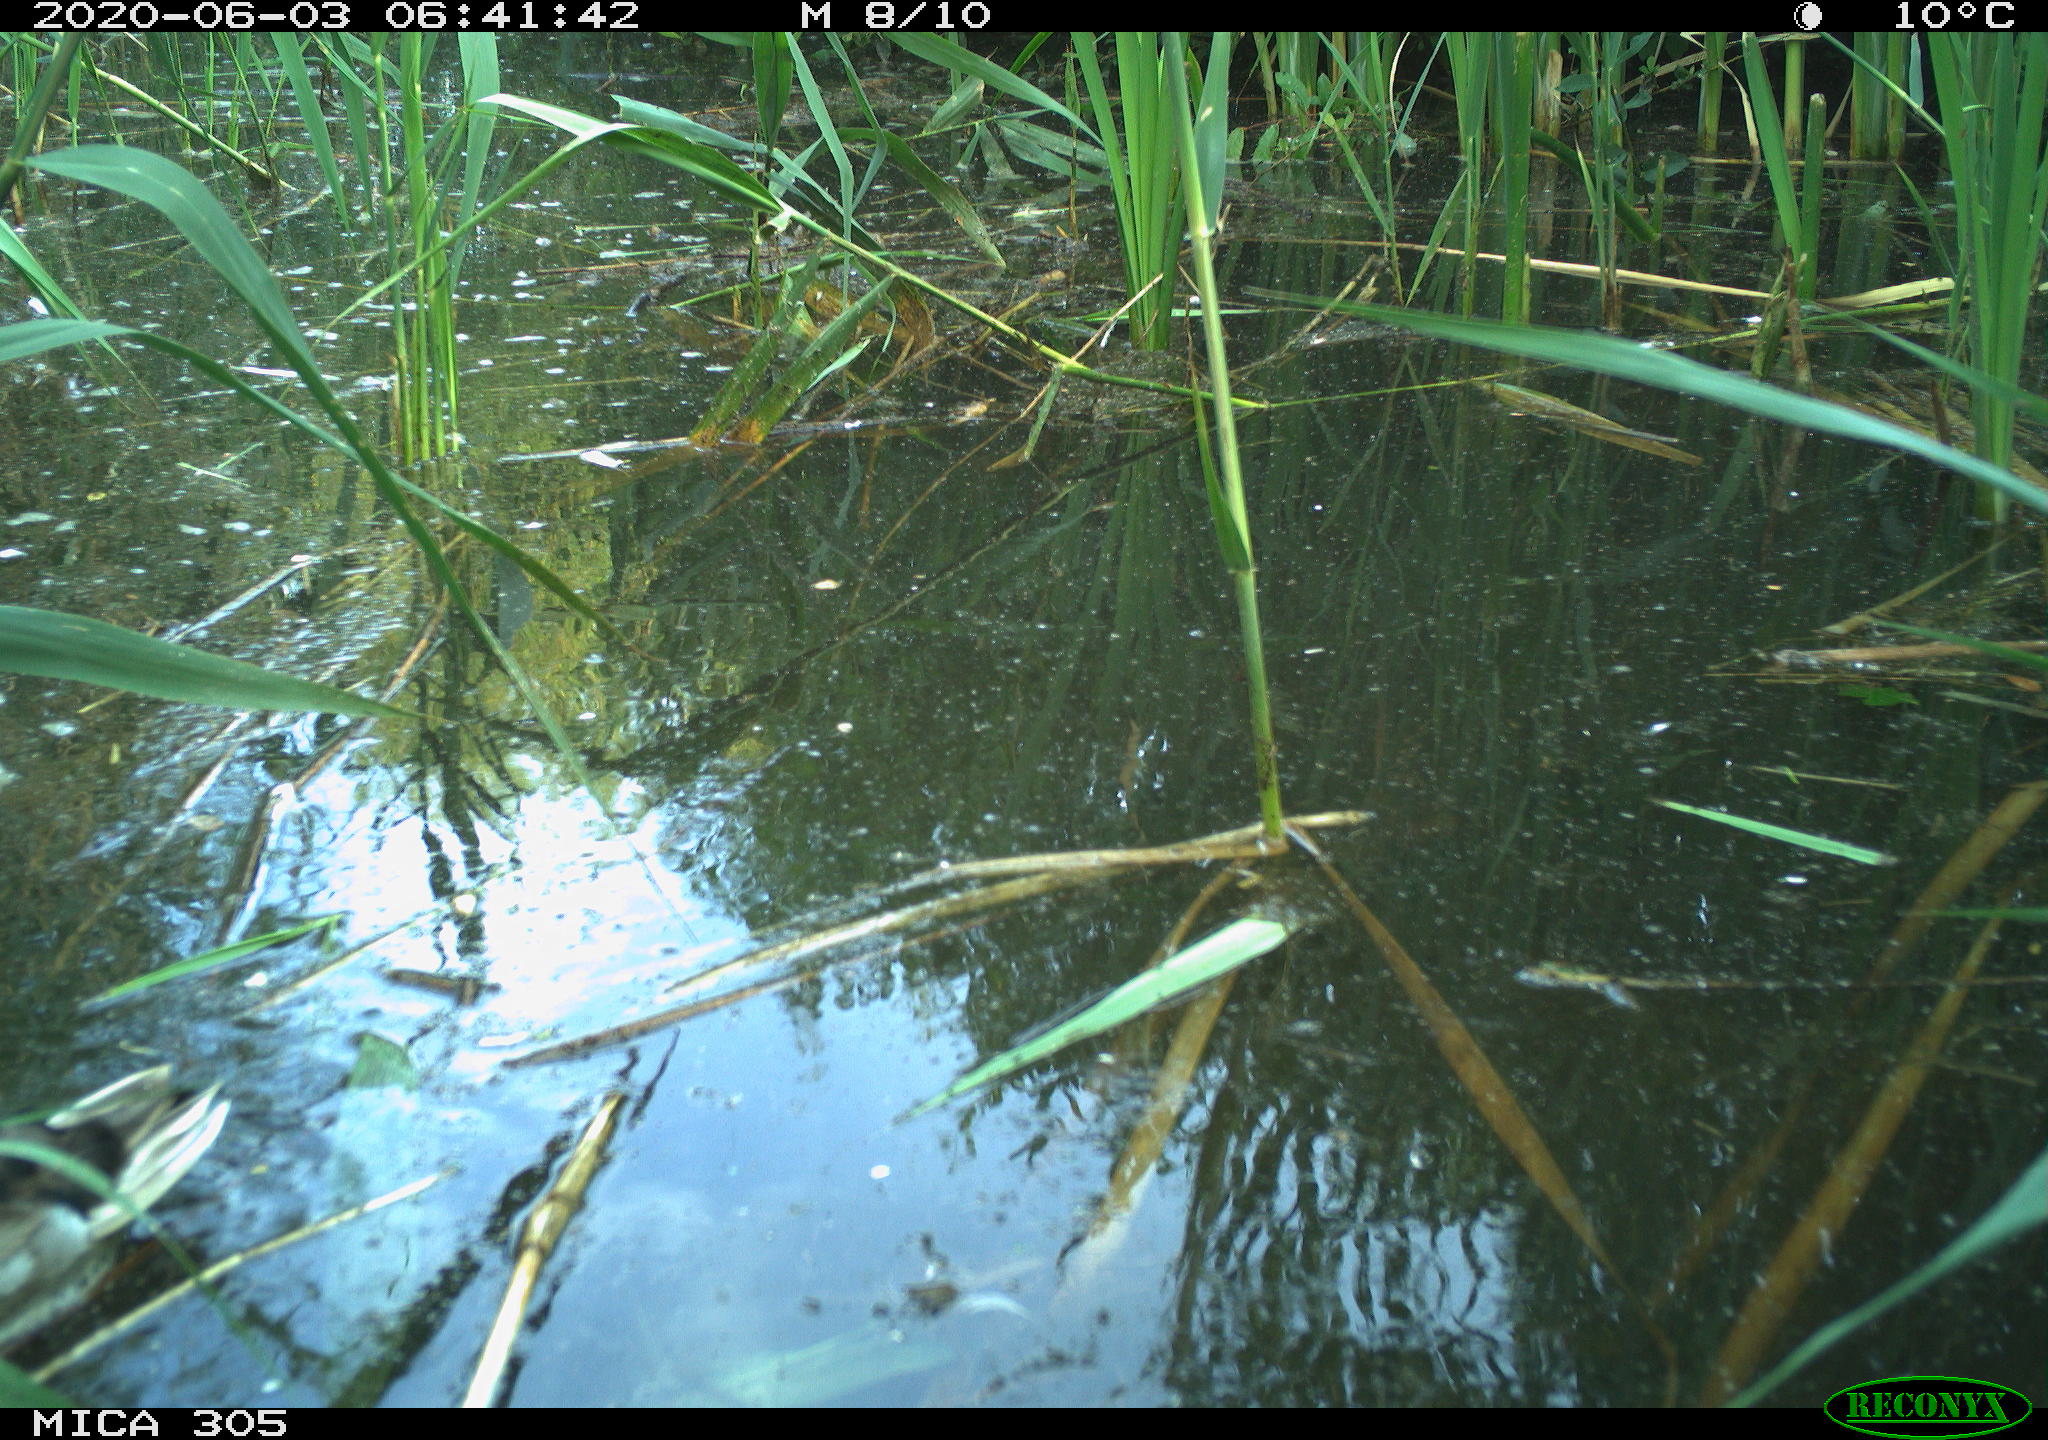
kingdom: Animalia
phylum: Chordata
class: Aves
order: Anseriformes
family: Anatidae
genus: Anas
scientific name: Anas platyrhynchos
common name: Mallard
